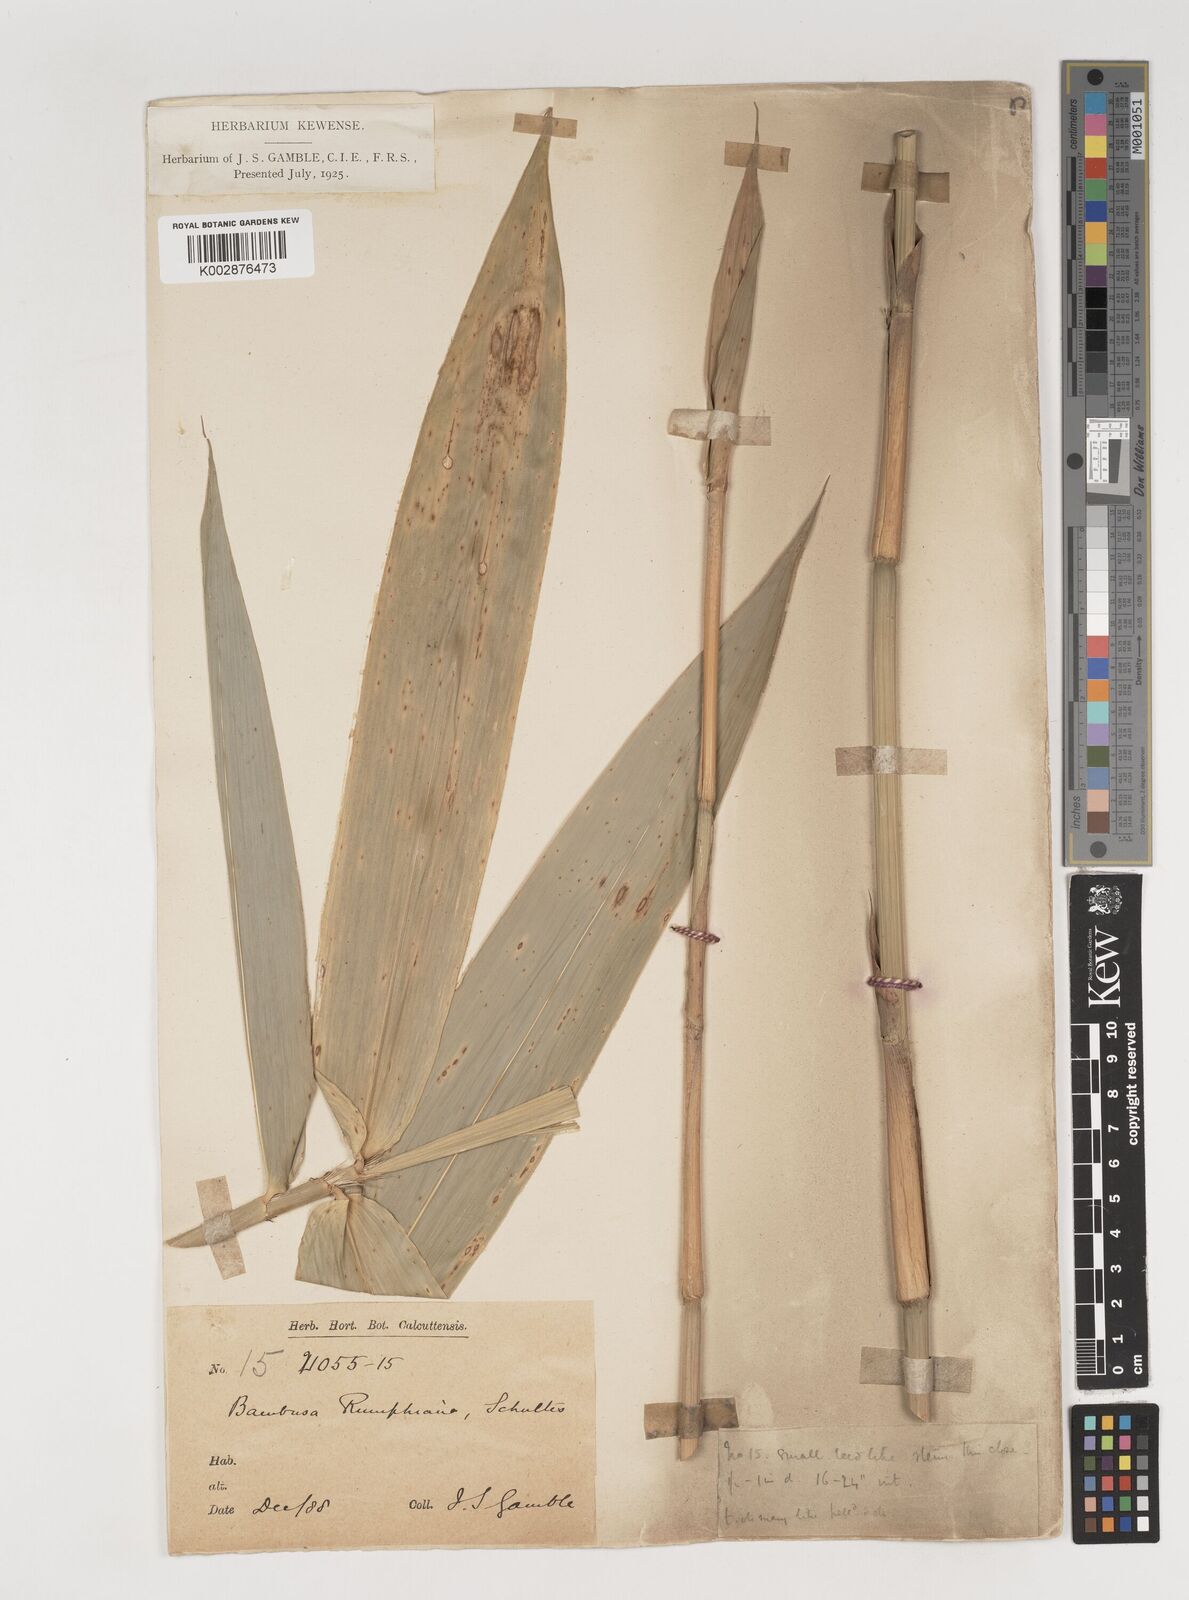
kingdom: Plantae
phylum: Tracheophyta
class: Liliopsida
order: Poales
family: Poaceae
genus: Neololeba
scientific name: Neololeba amahussana
